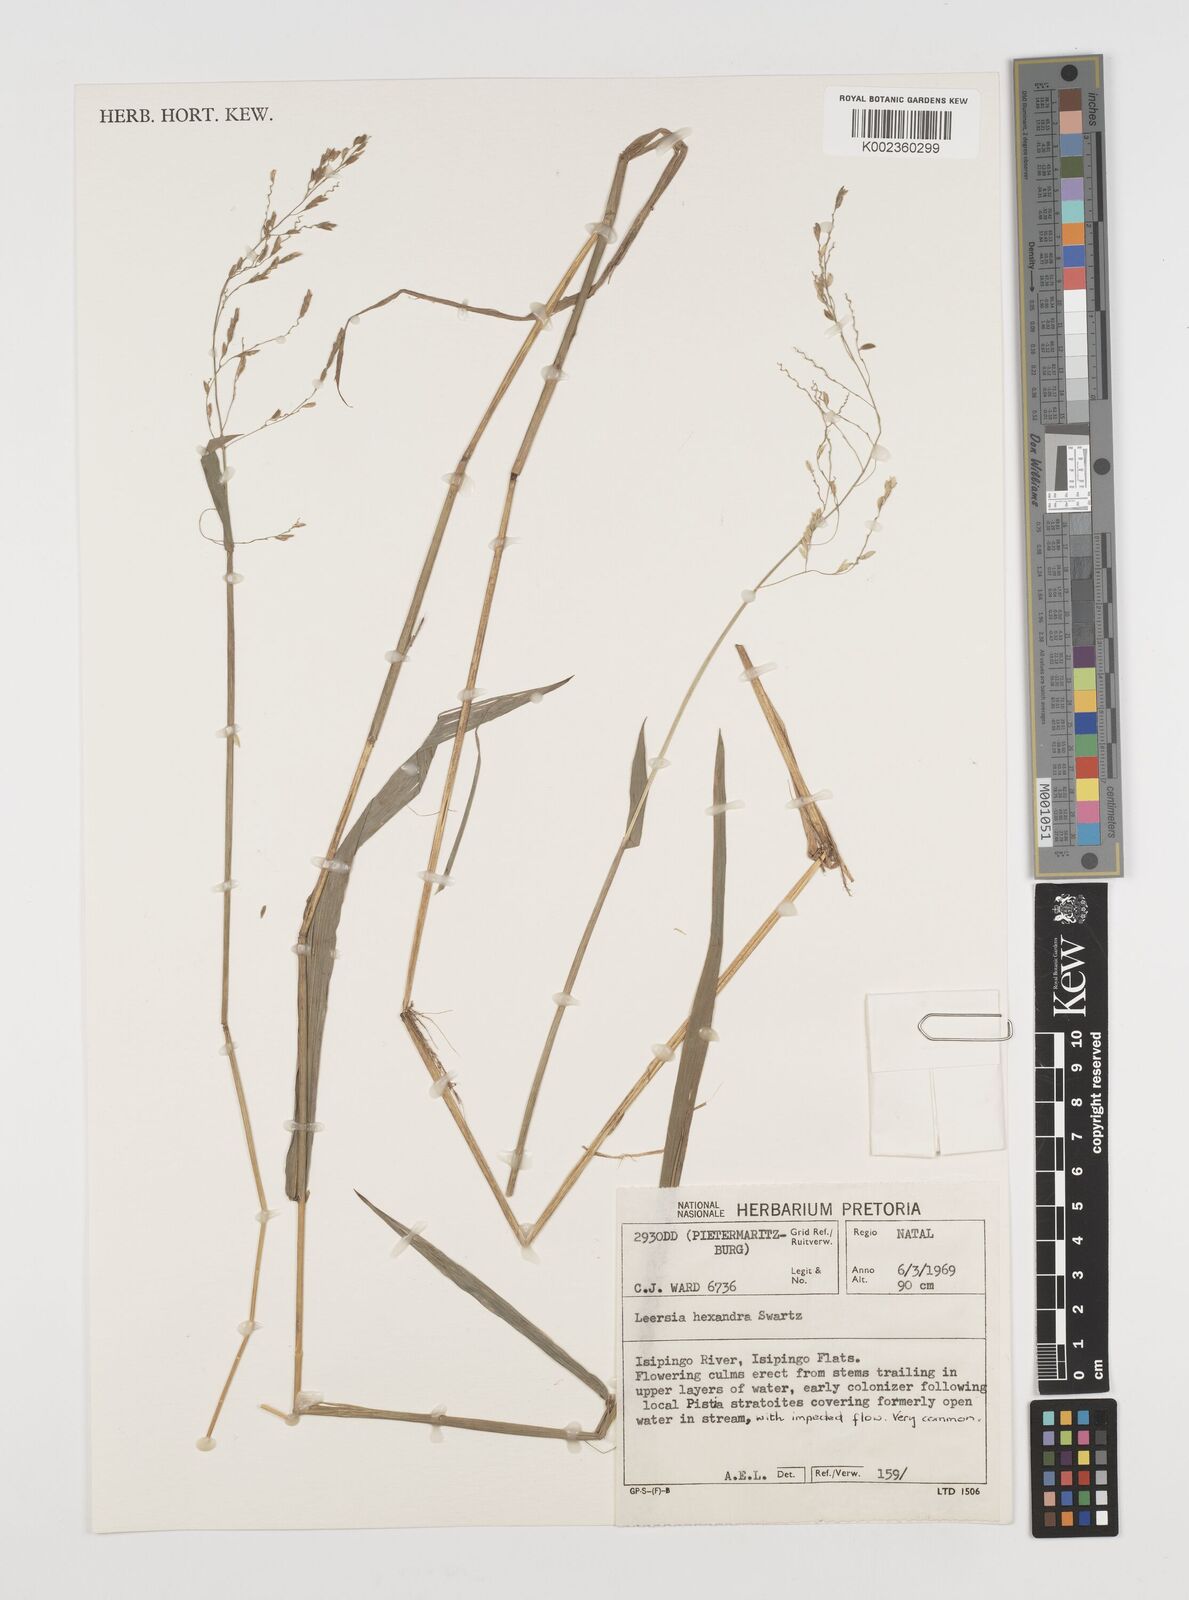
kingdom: Plantae
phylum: Tracheophyta
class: Liliopsida
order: Poales
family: Poaceae
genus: Leersia
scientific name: Leersia hexandra
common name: Southern cut grass
